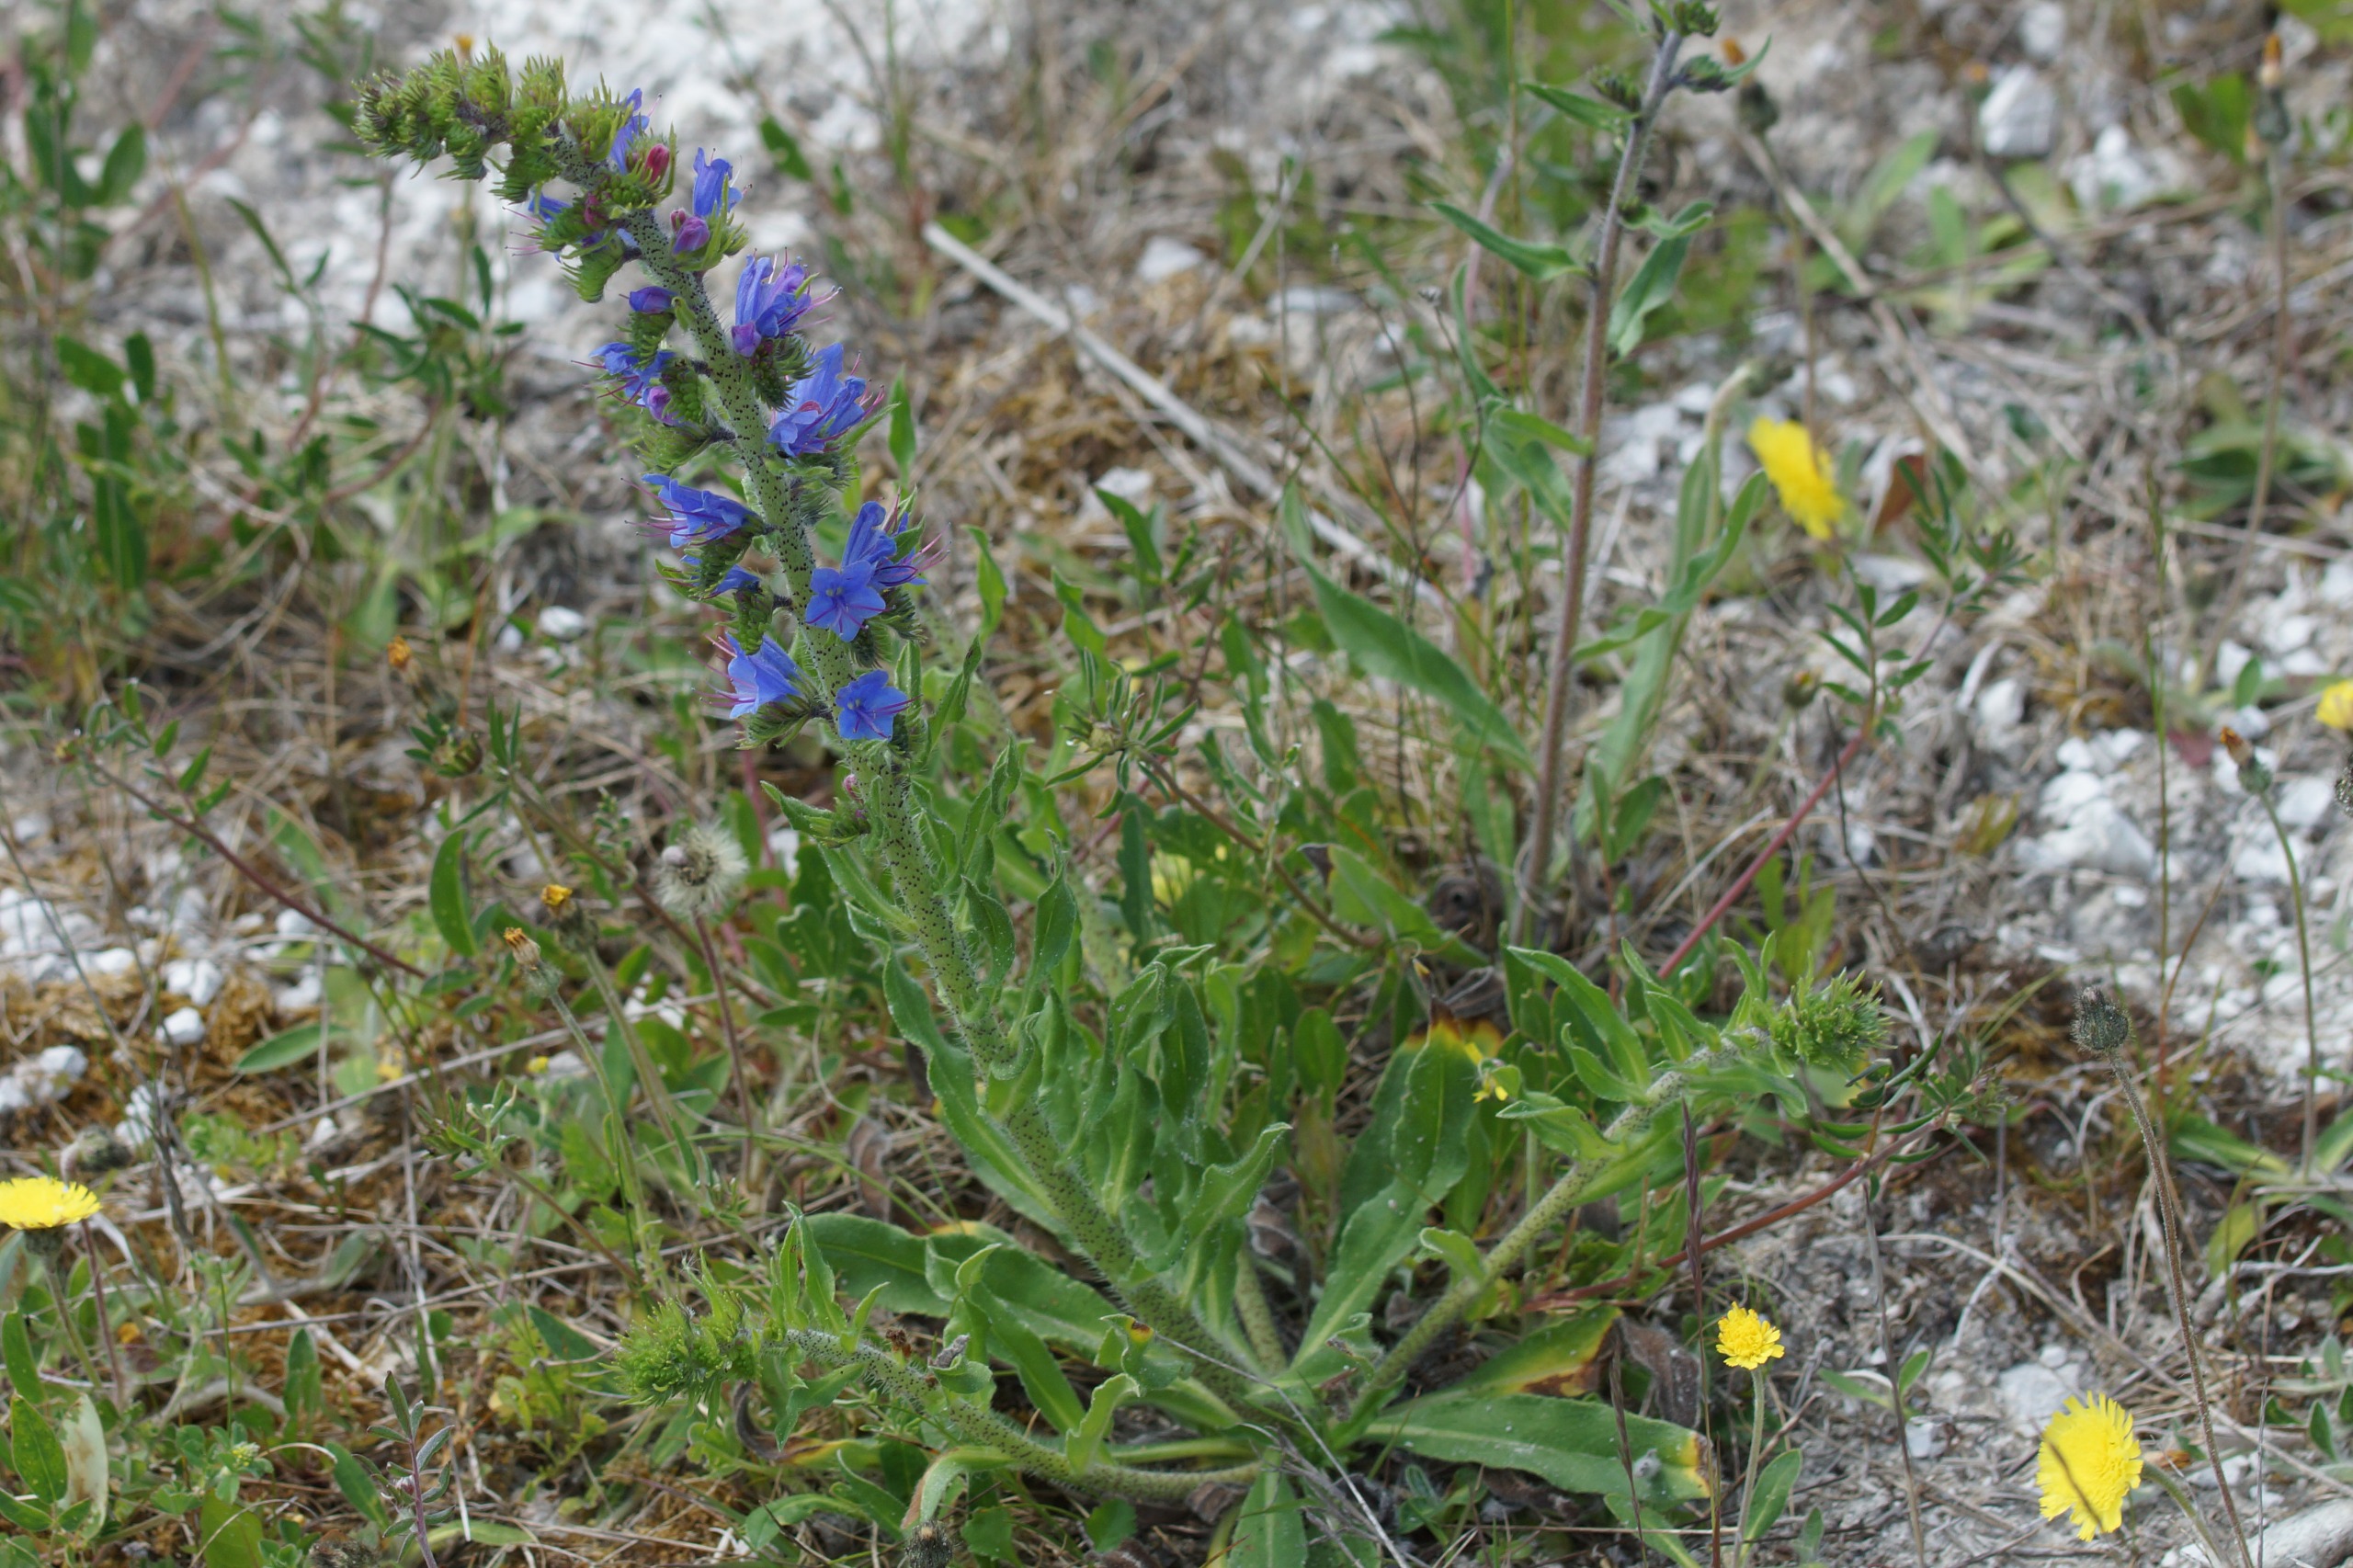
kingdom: Plantae
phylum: Tracheophyta
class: Magnoliopsida
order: Boraginales
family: Boraginaceae
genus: Echium
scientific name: Echium vulgare
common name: Slangehoved
